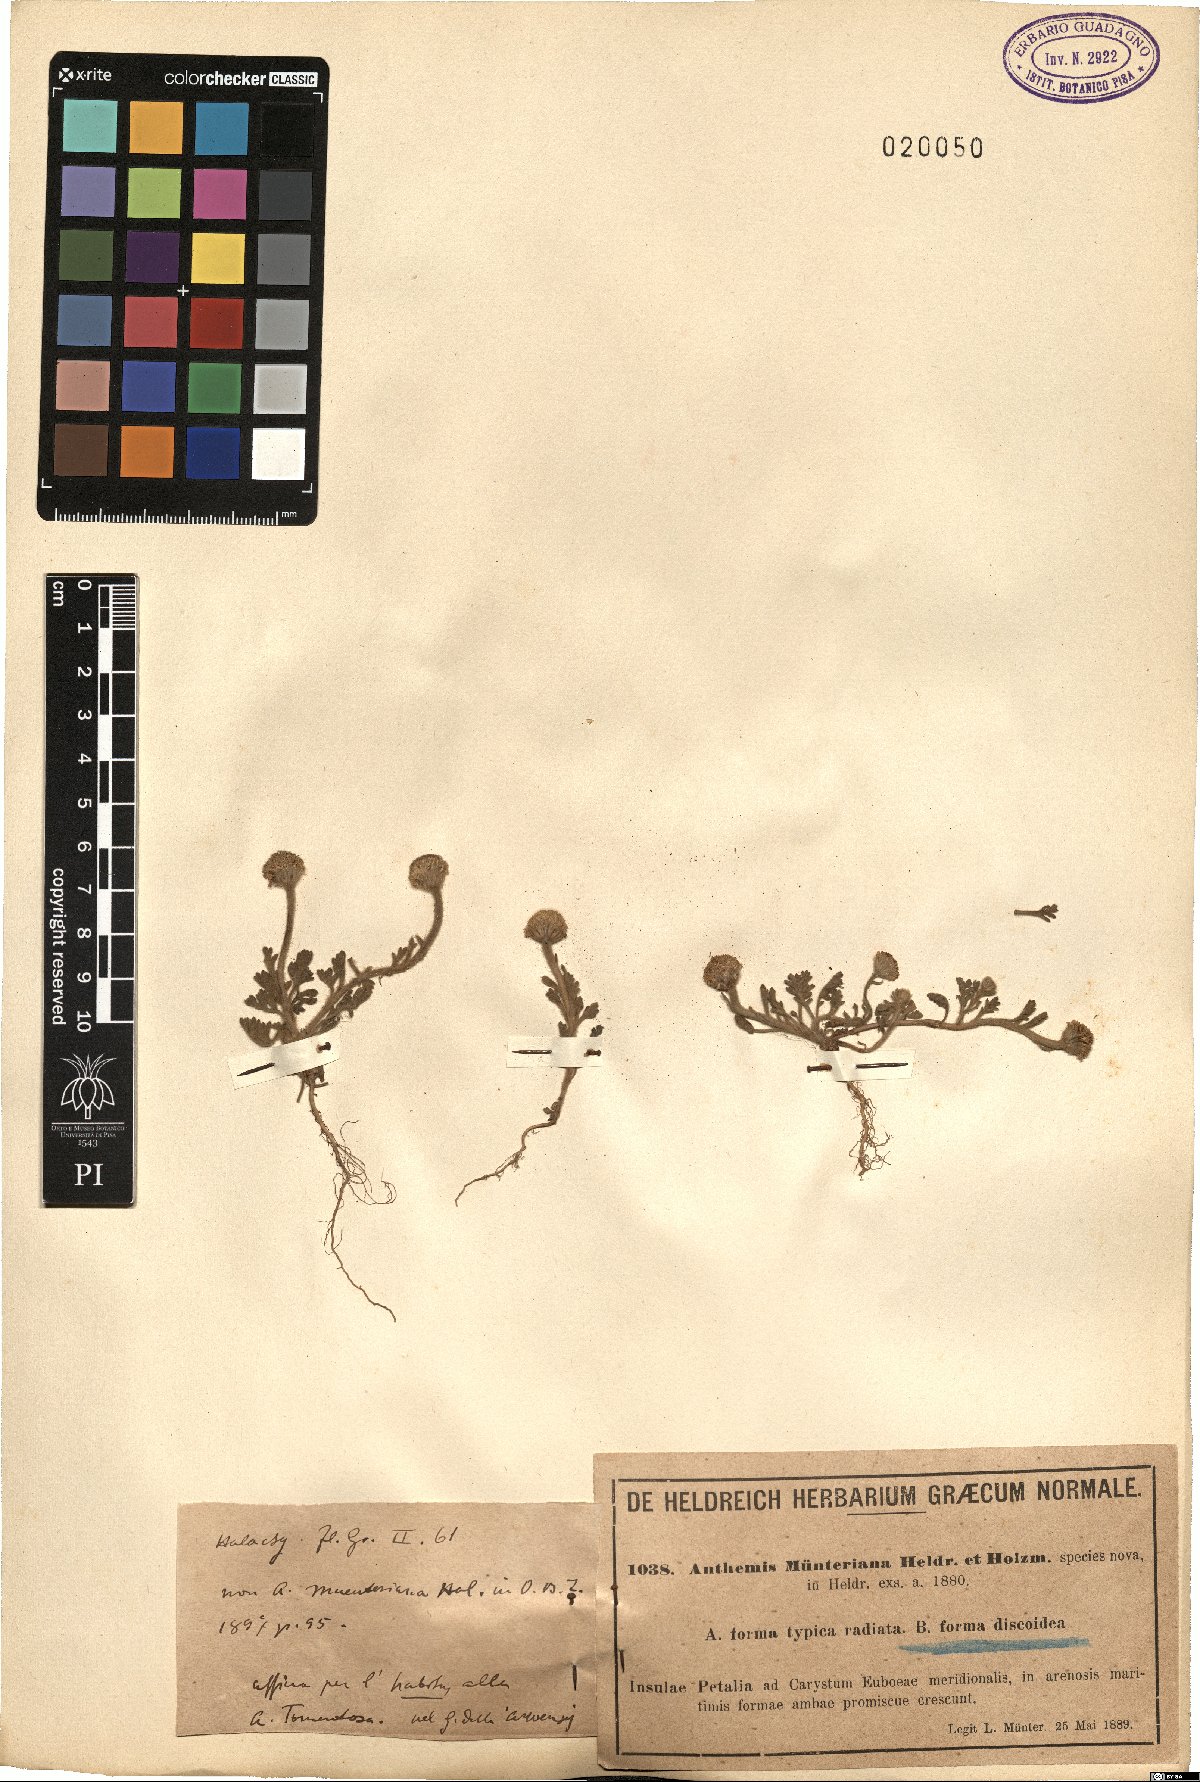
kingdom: Plantae
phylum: Tracheophyta
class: Magnoliopsida
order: Asterales
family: Asteraceae
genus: Anthemis
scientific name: Anthemis tomentosa
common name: Woolly chamomile
